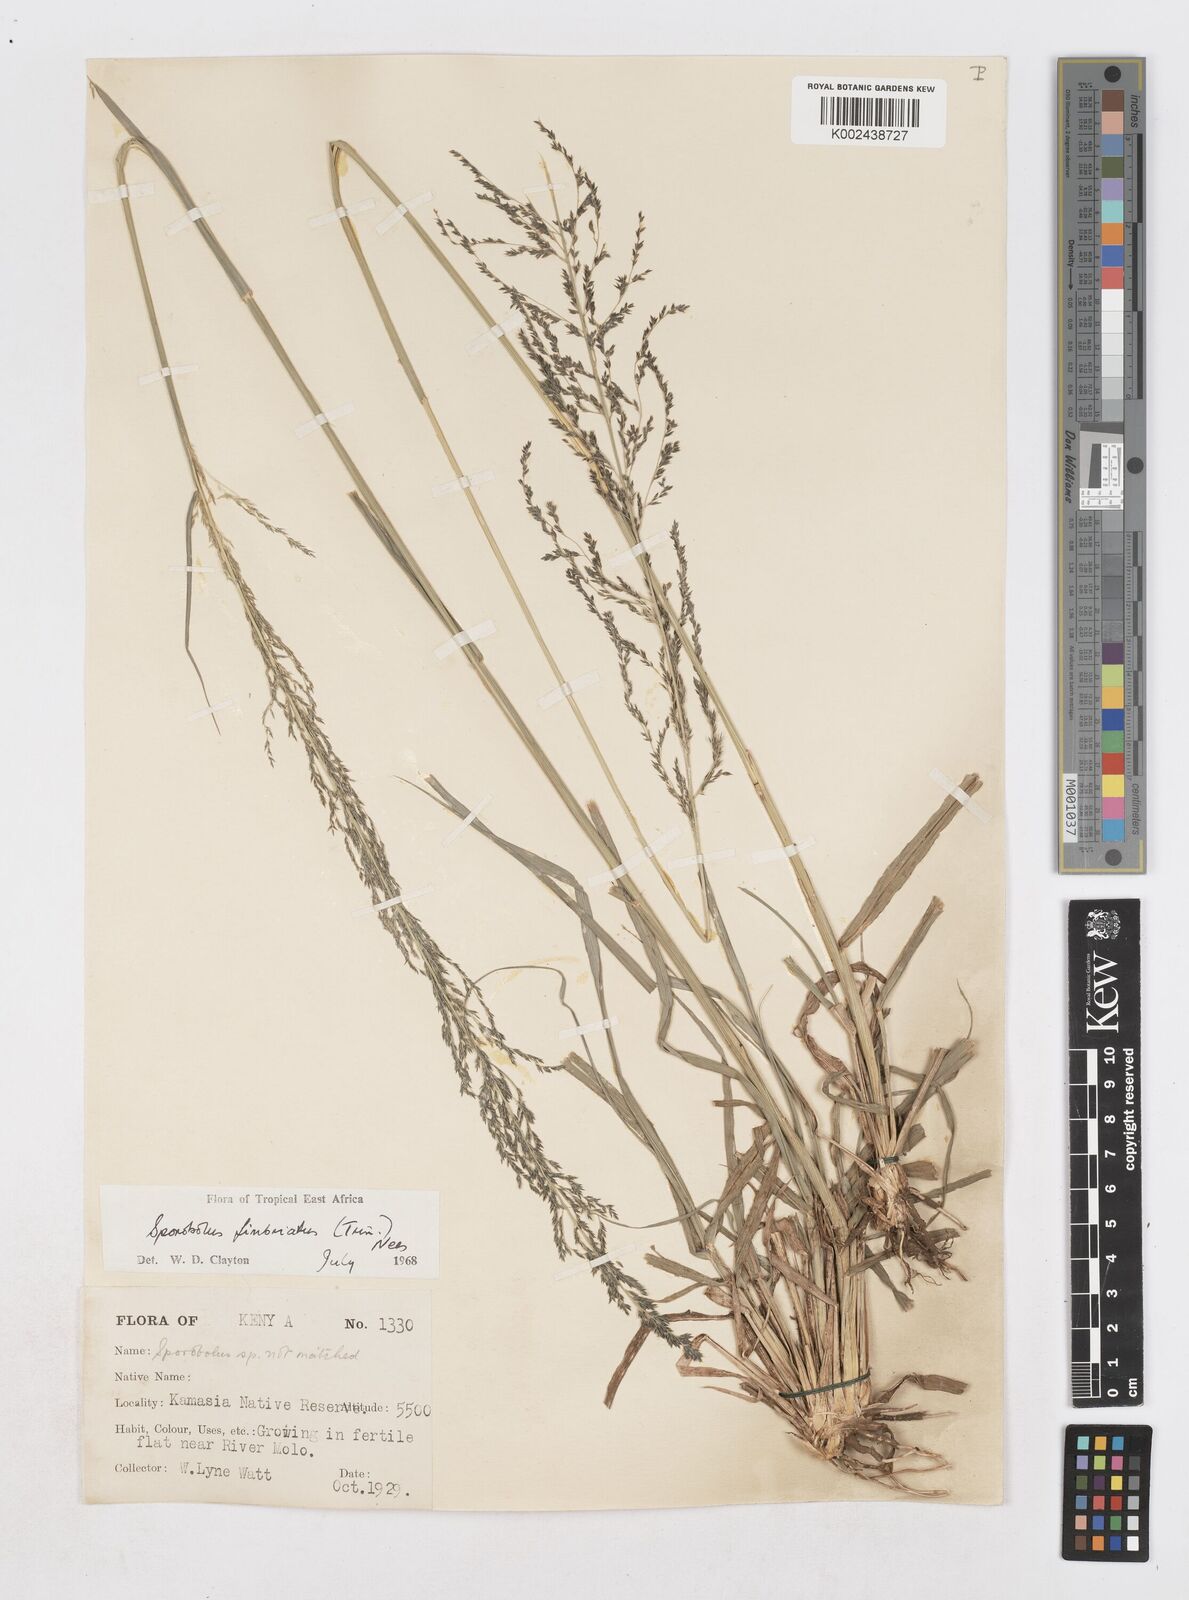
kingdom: Plantae
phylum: Tracheophyta
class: Liliopsida
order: Poales
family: Poaceae
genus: Sporobolus
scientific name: Sporobolus fimbriatus
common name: Fringed dropseed
